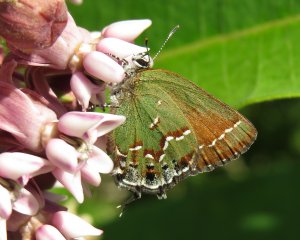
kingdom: Animalia
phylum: Arthropoda
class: Insecta
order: Lepidoptera
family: Lycaenidae
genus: Mitoura
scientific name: Mitoura gryneus
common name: Juniper Hairstreak
